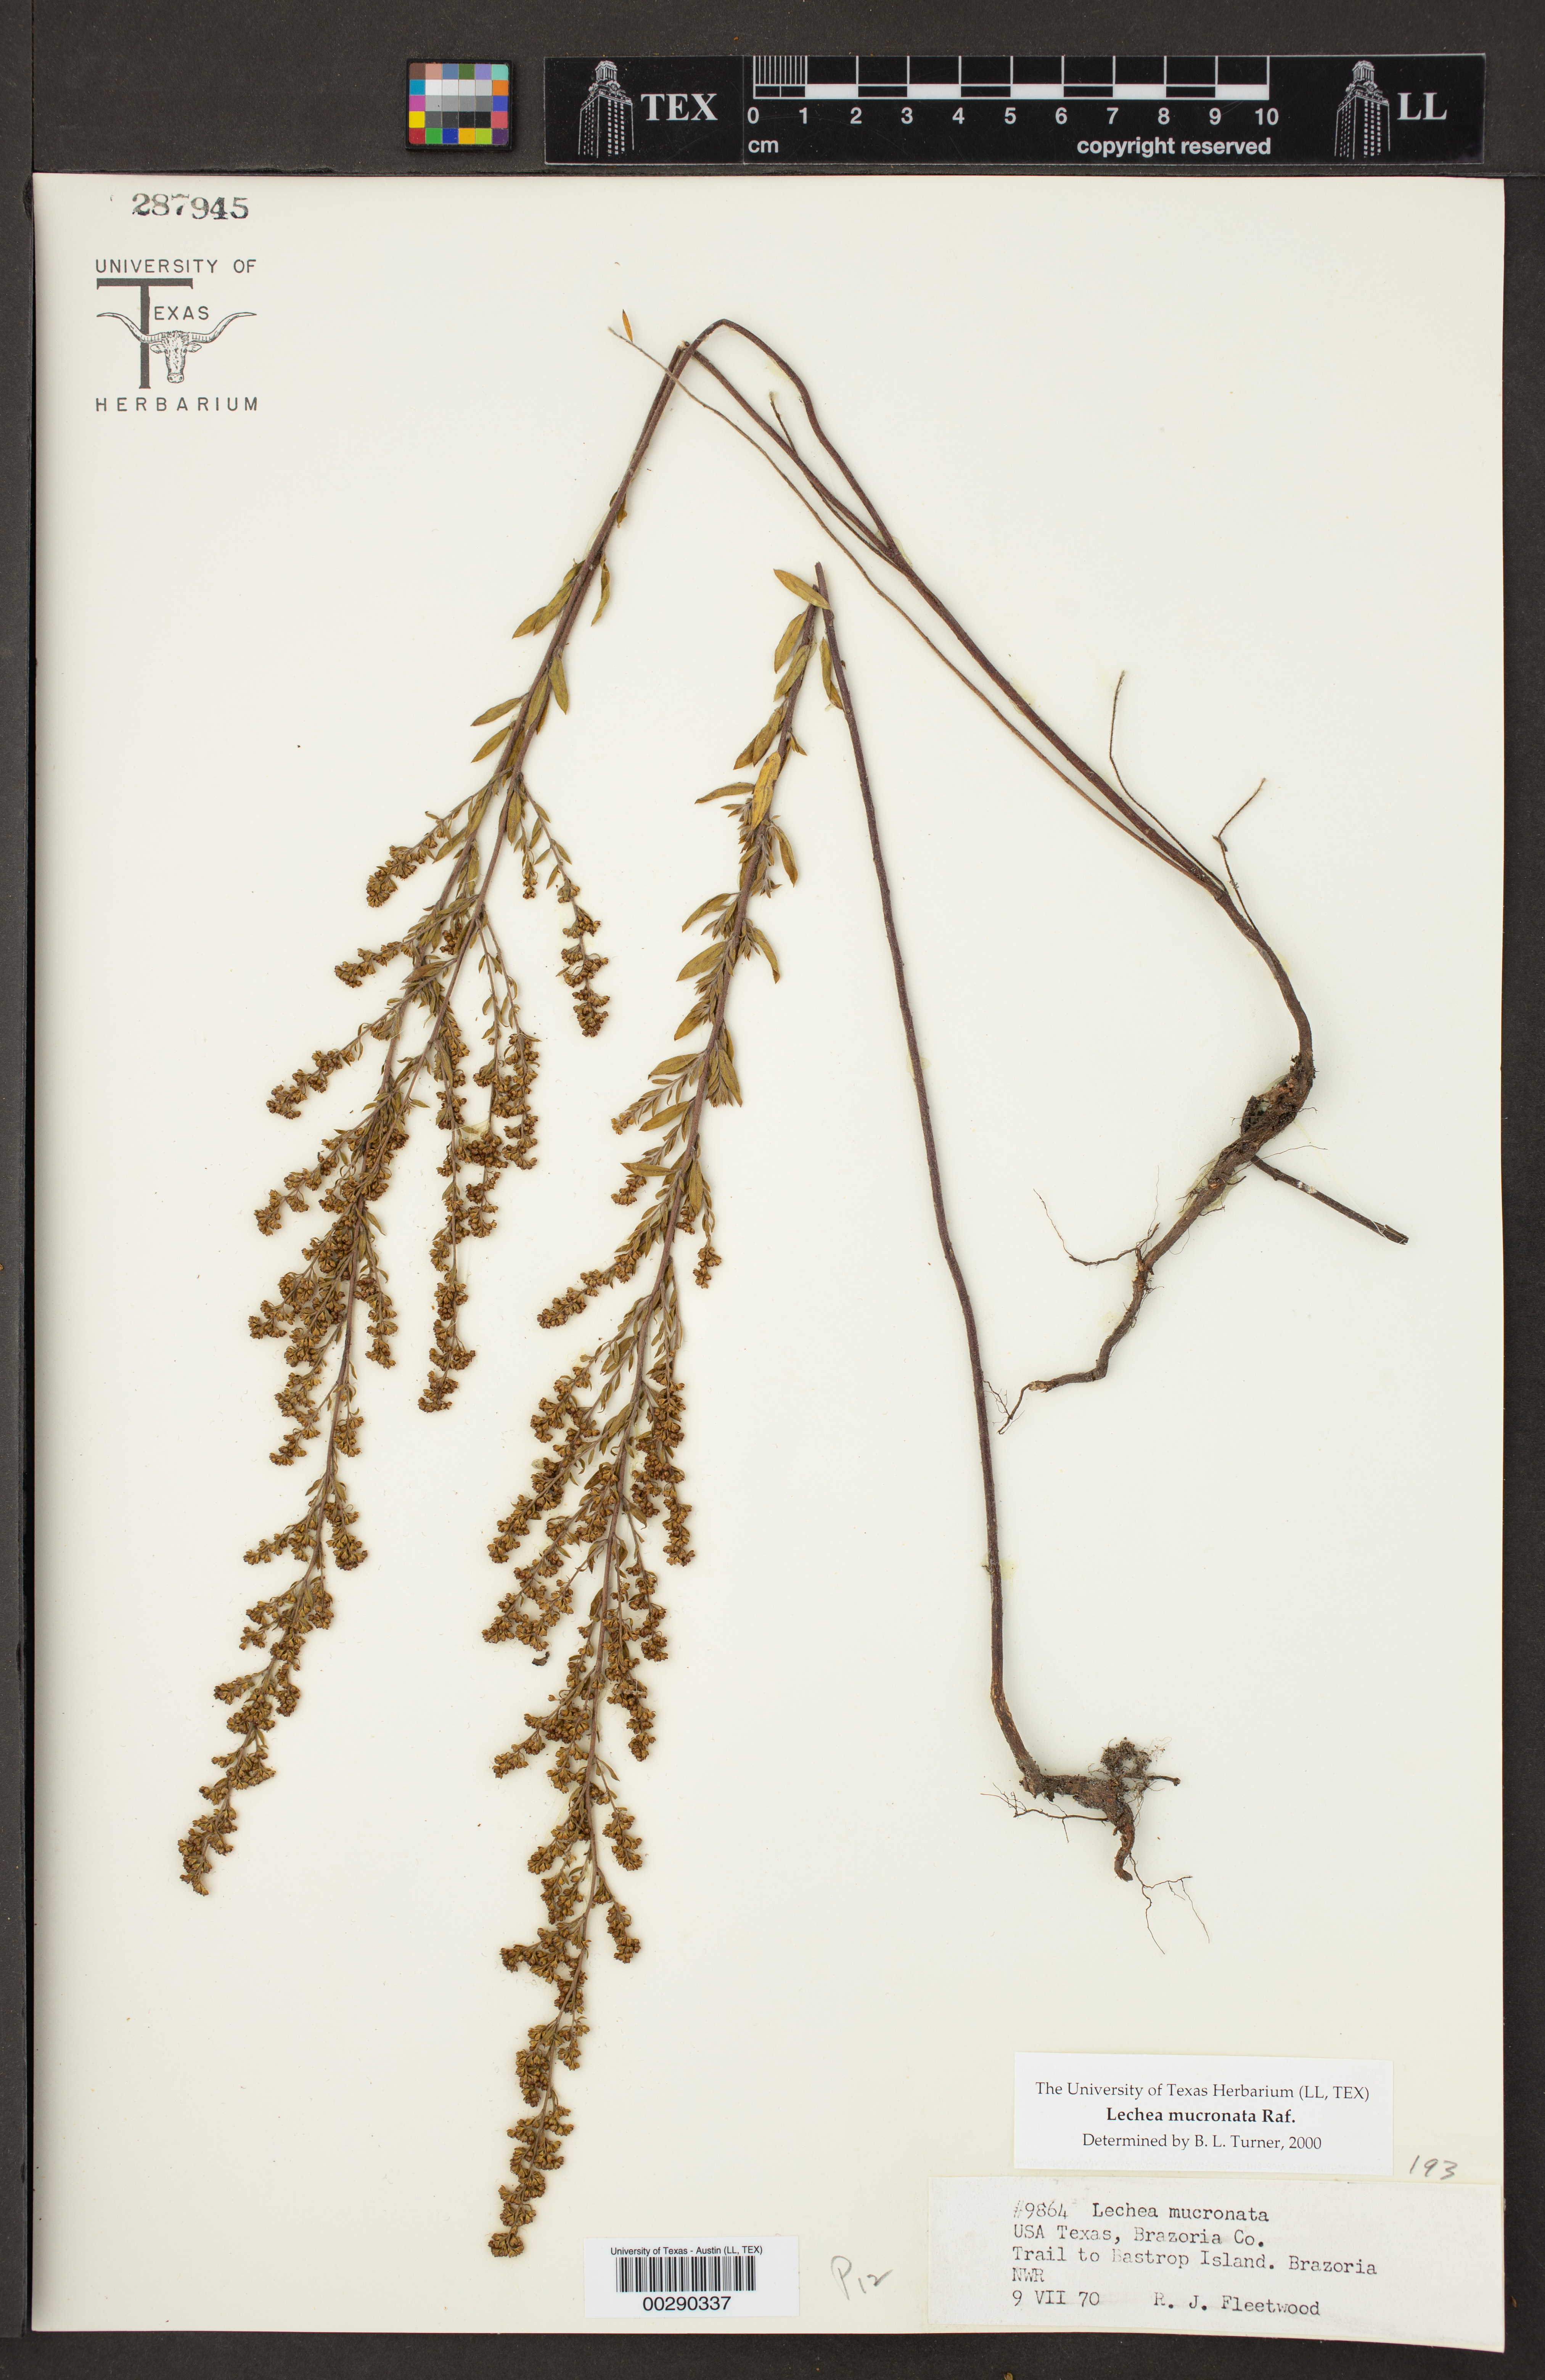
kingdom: Plantae
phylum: Tracheophyta
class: Magnoliopsida
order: Malvales
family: Cistaceae
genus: Lechea
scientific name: Lechea mucronata
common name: Hairy pinweed
